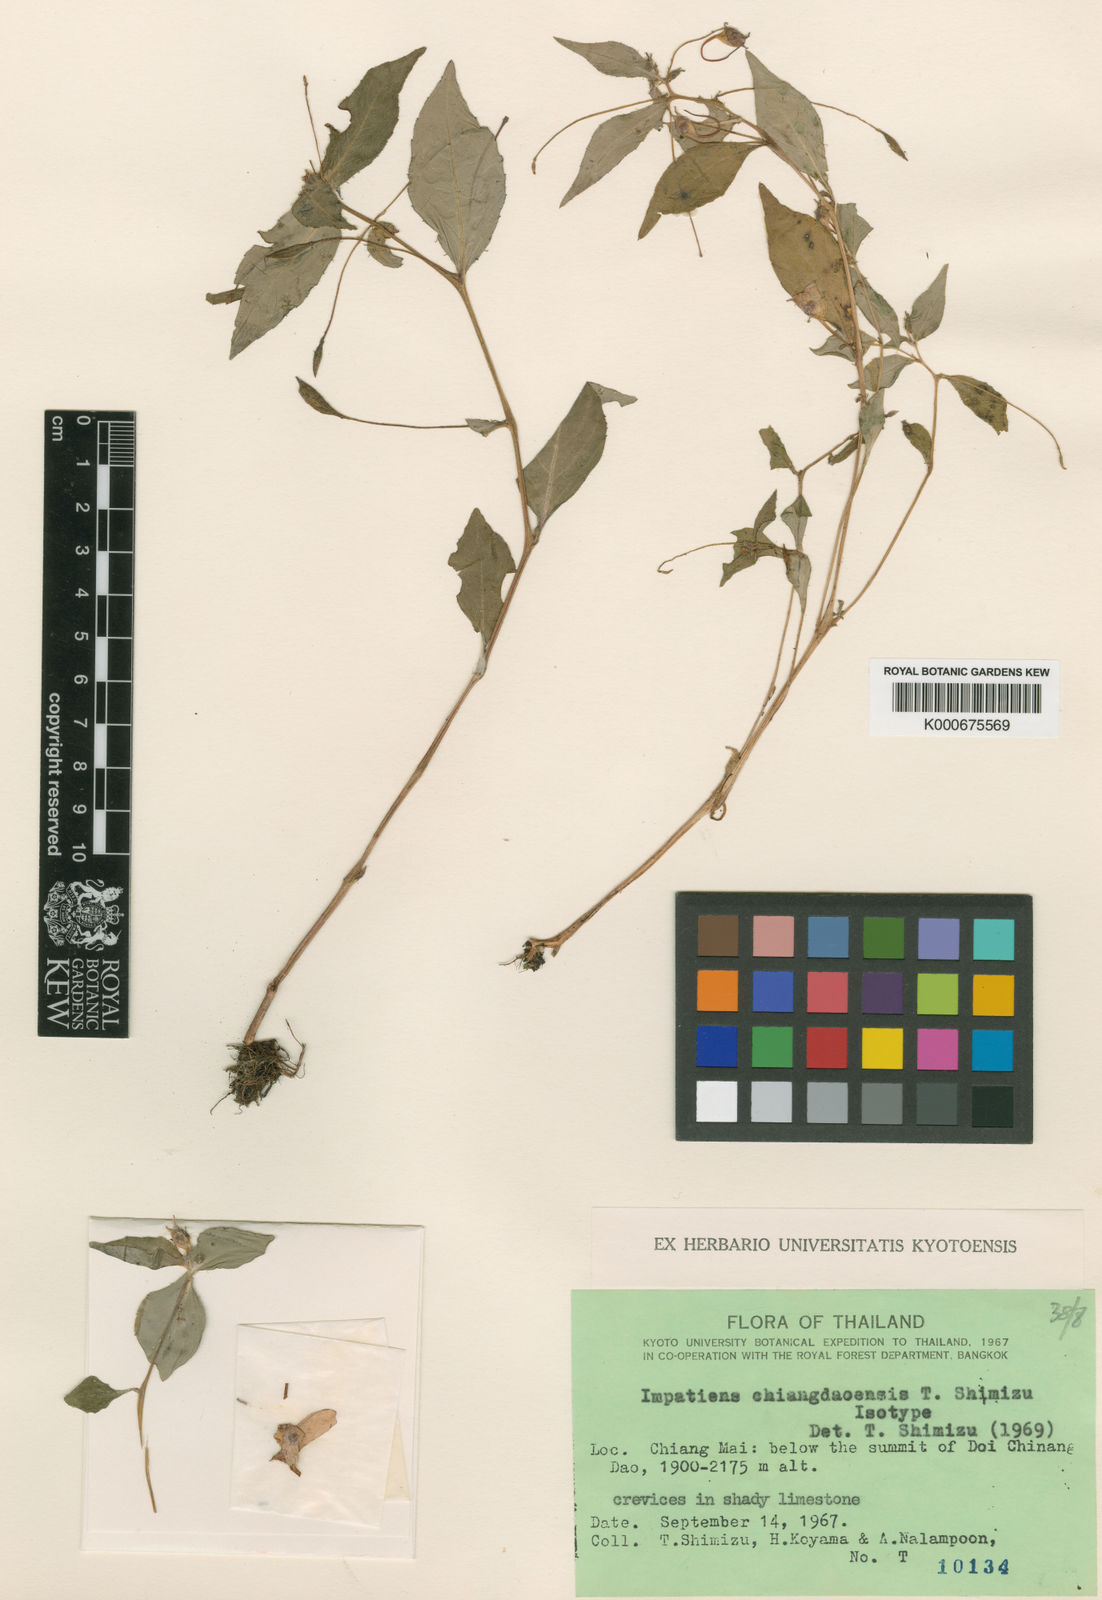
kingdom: Plantae
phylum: Tracheophyta
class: Magnoliopsida
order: Ericales
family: Balsaminaceae
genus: Impatiens
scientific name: Impatiens chiangdaoensis
